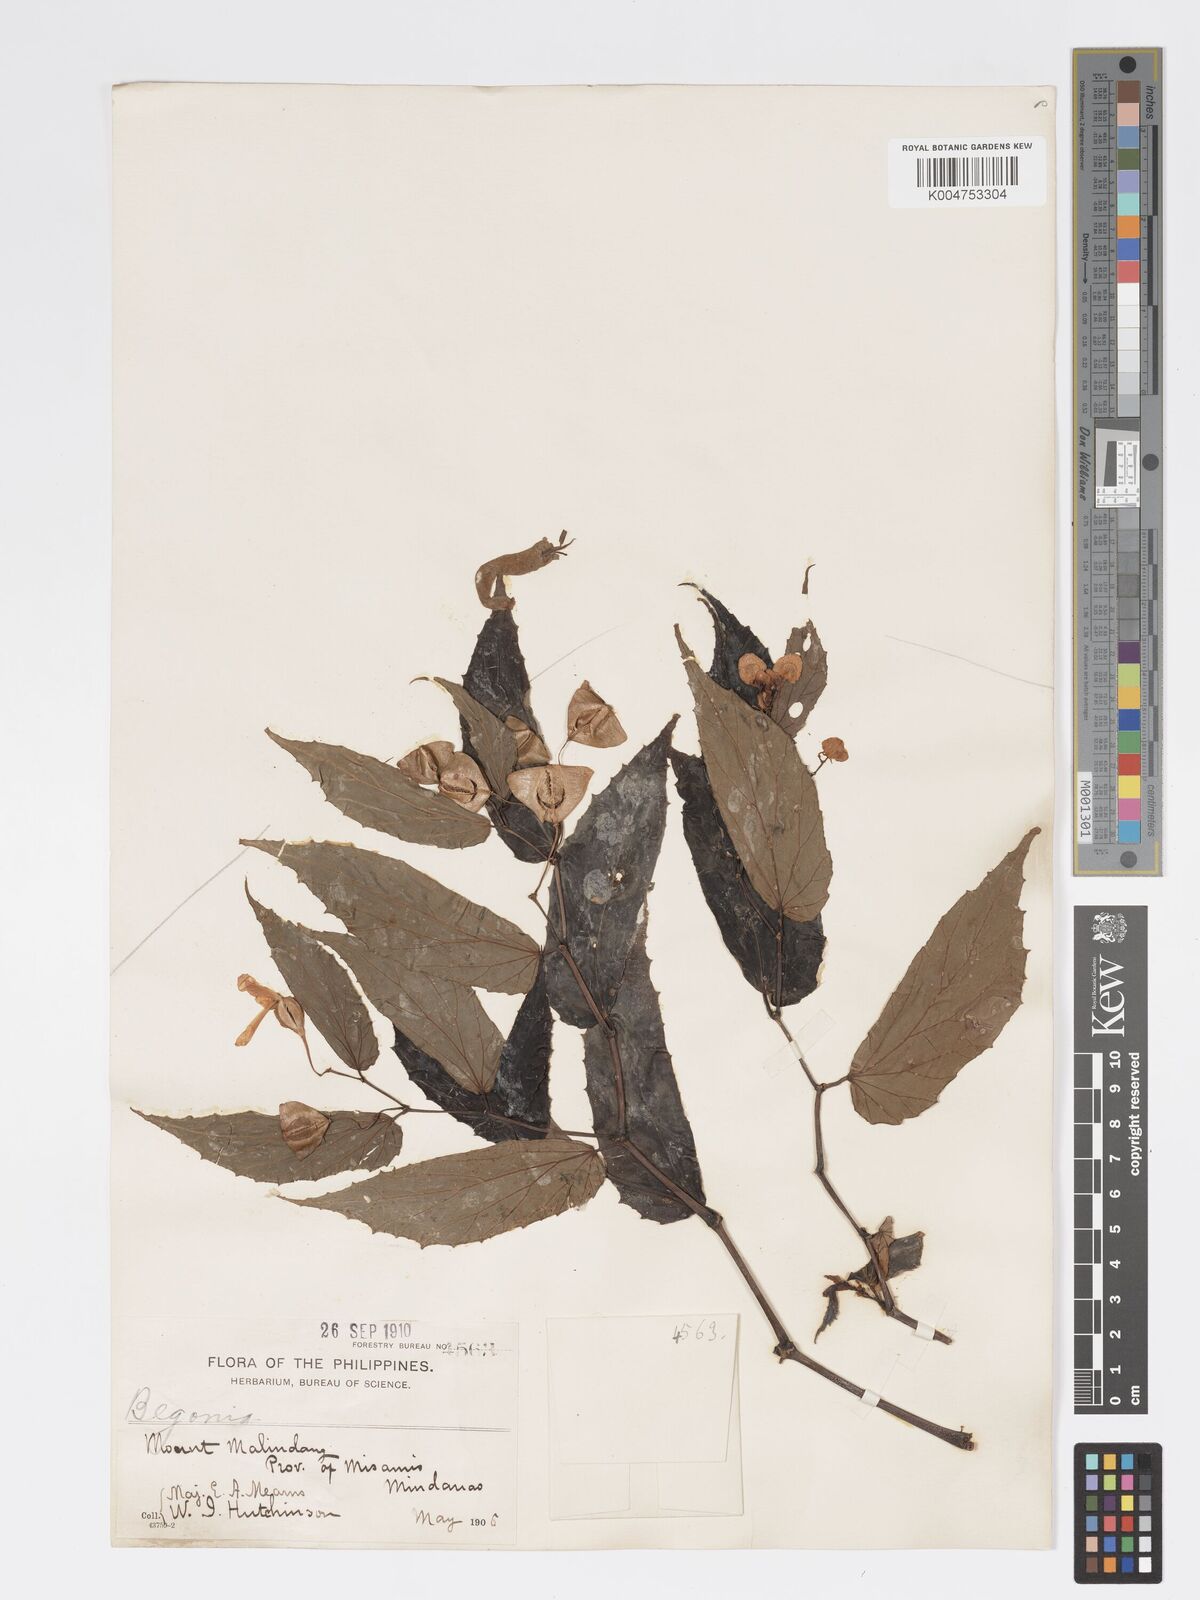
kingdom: Plantae
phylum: Tracheophyta
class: Magnoliopsida
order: Cucurbitales
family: Begoniaceae
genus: Begonia
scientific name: Begonia cumingiana
